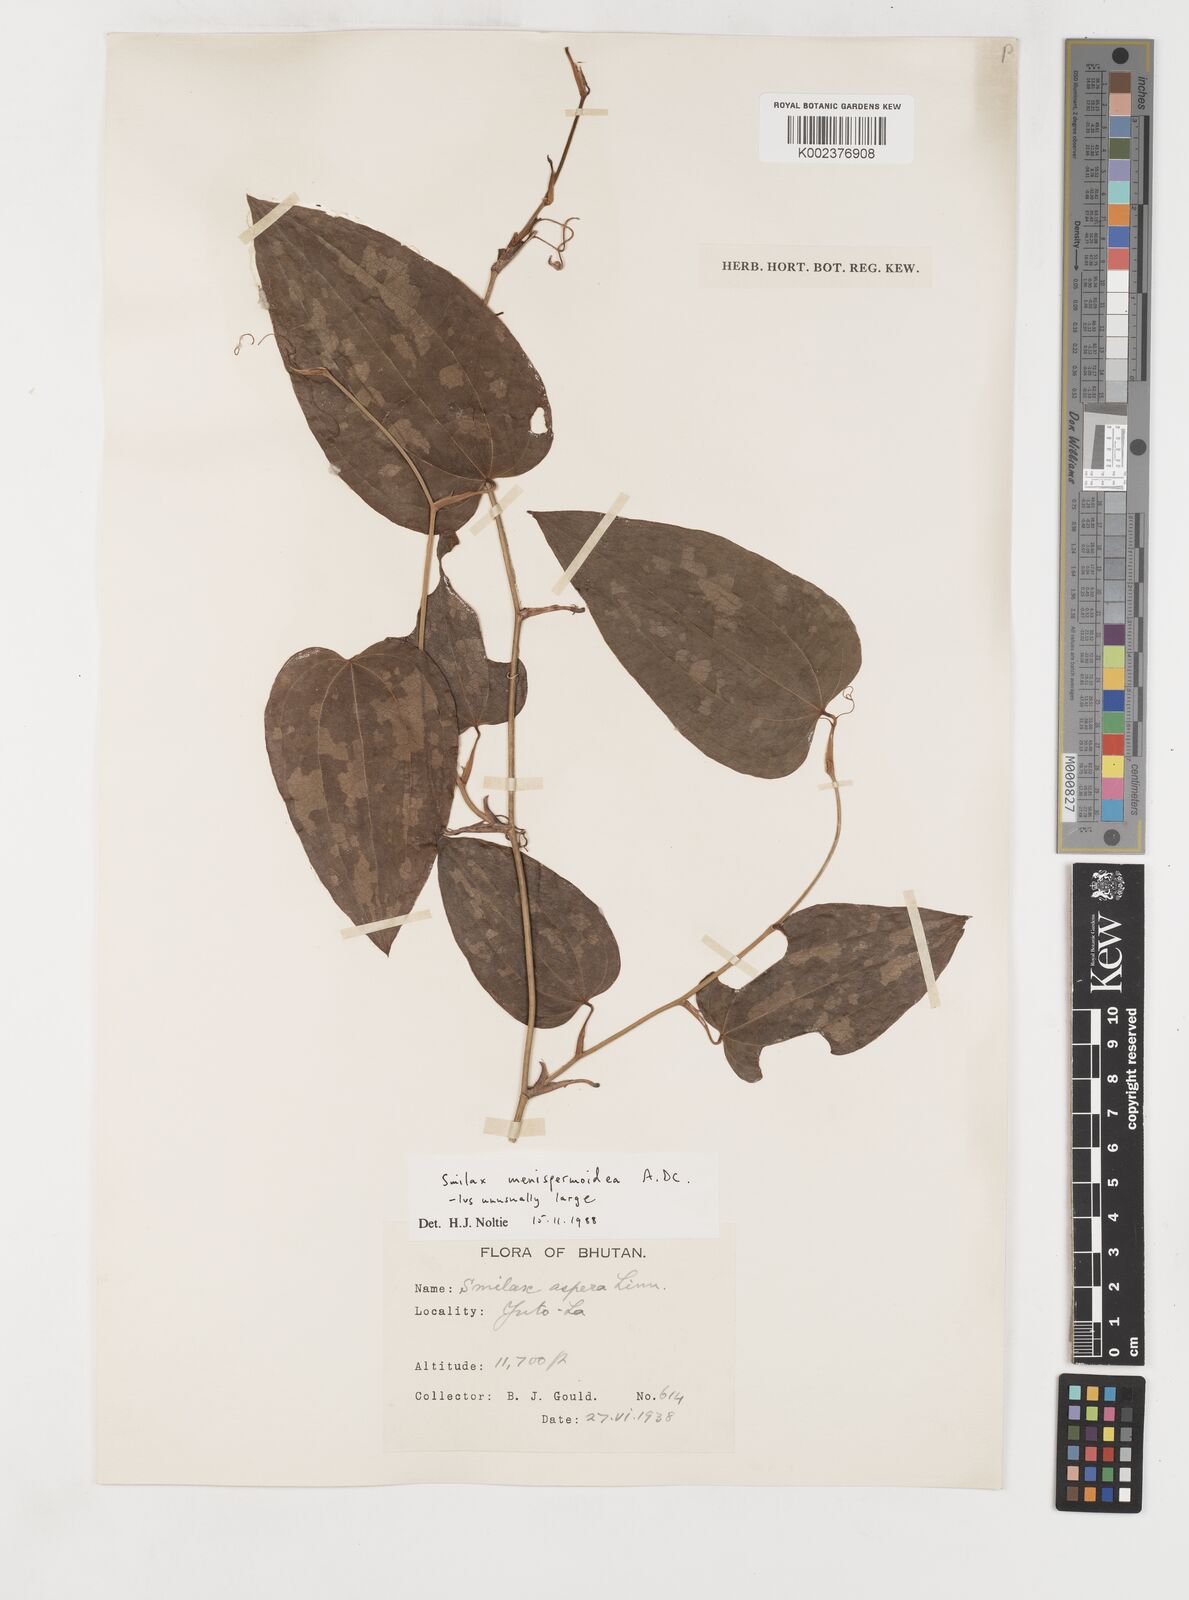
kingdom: Plantae
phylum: Tracheophyta
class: Liliopsida
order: Liliales
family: Smilacaceae
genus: Smilax
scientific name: Smilax menispermoidea
